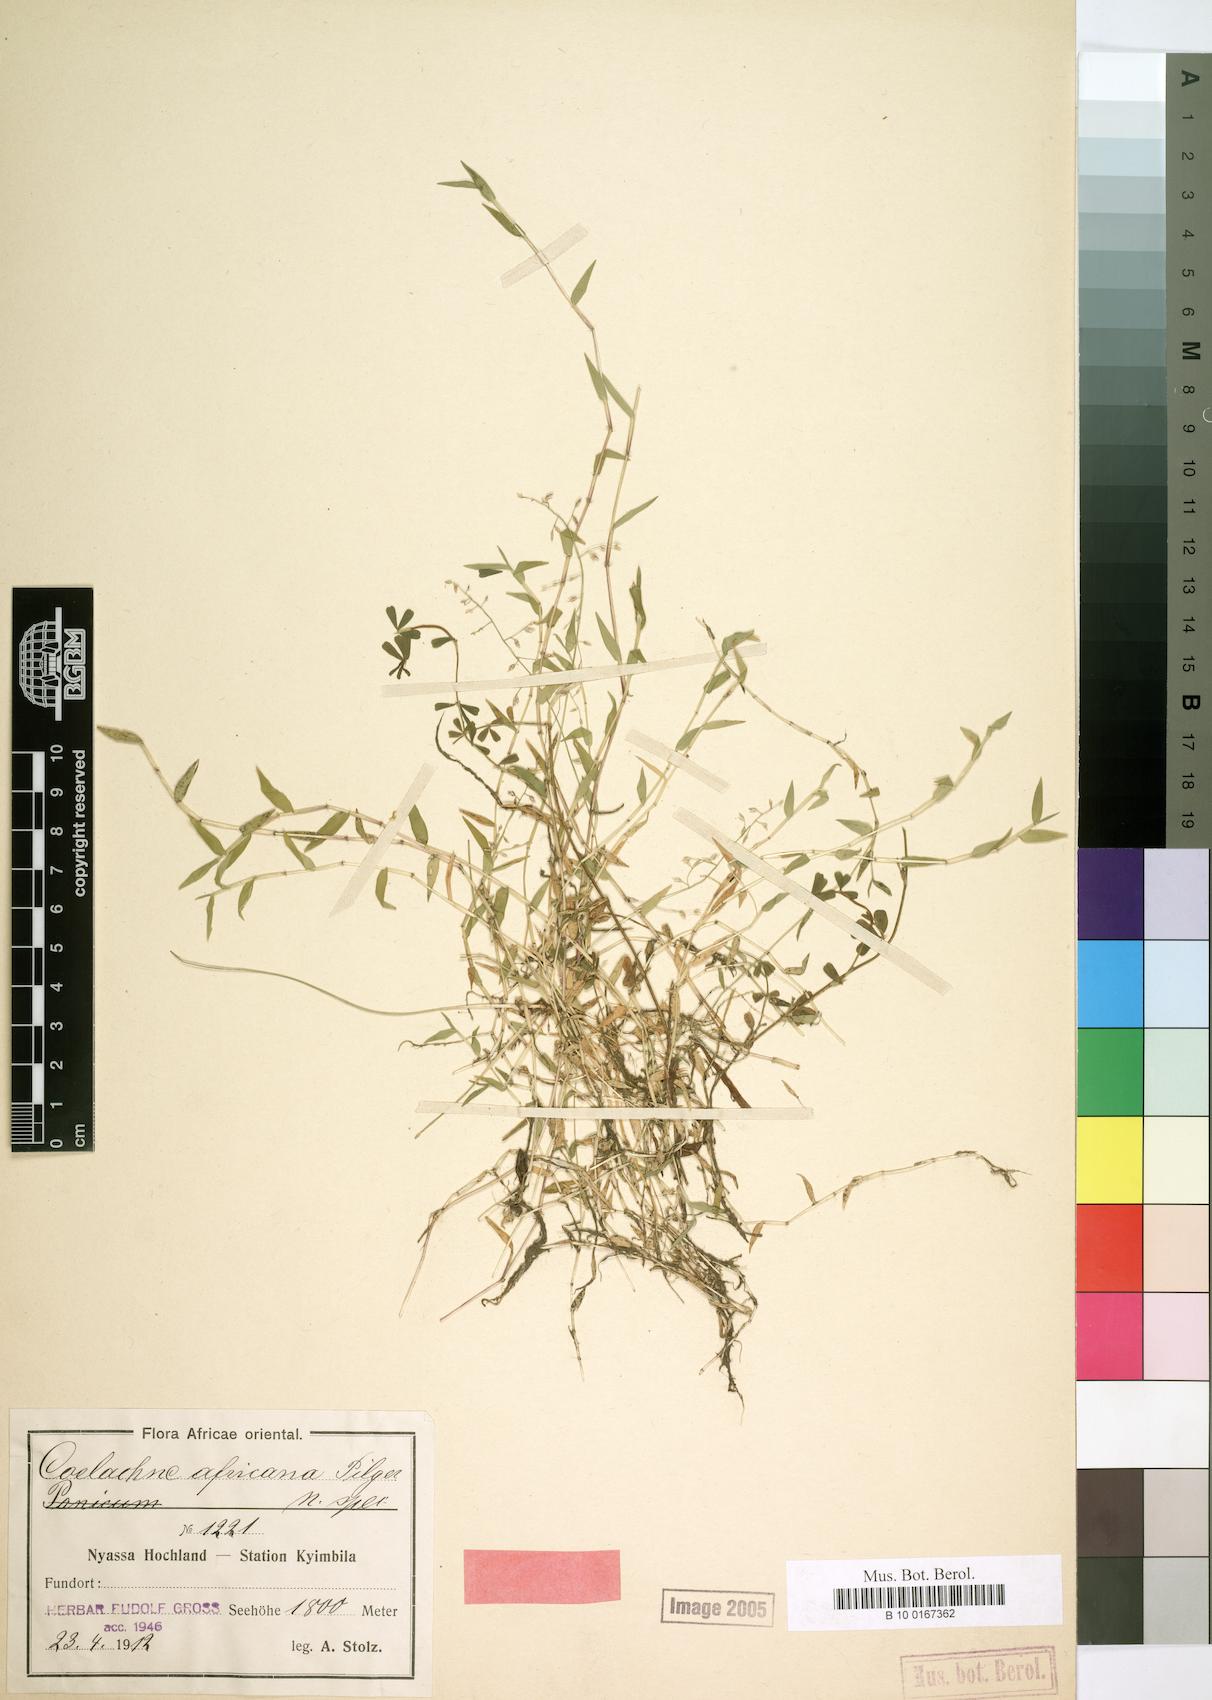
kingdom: Plantae
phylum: Tracheophyta
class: Liliopsida
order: Poales
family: Poaceae
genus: Coelachne
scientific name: Coelachne africana
